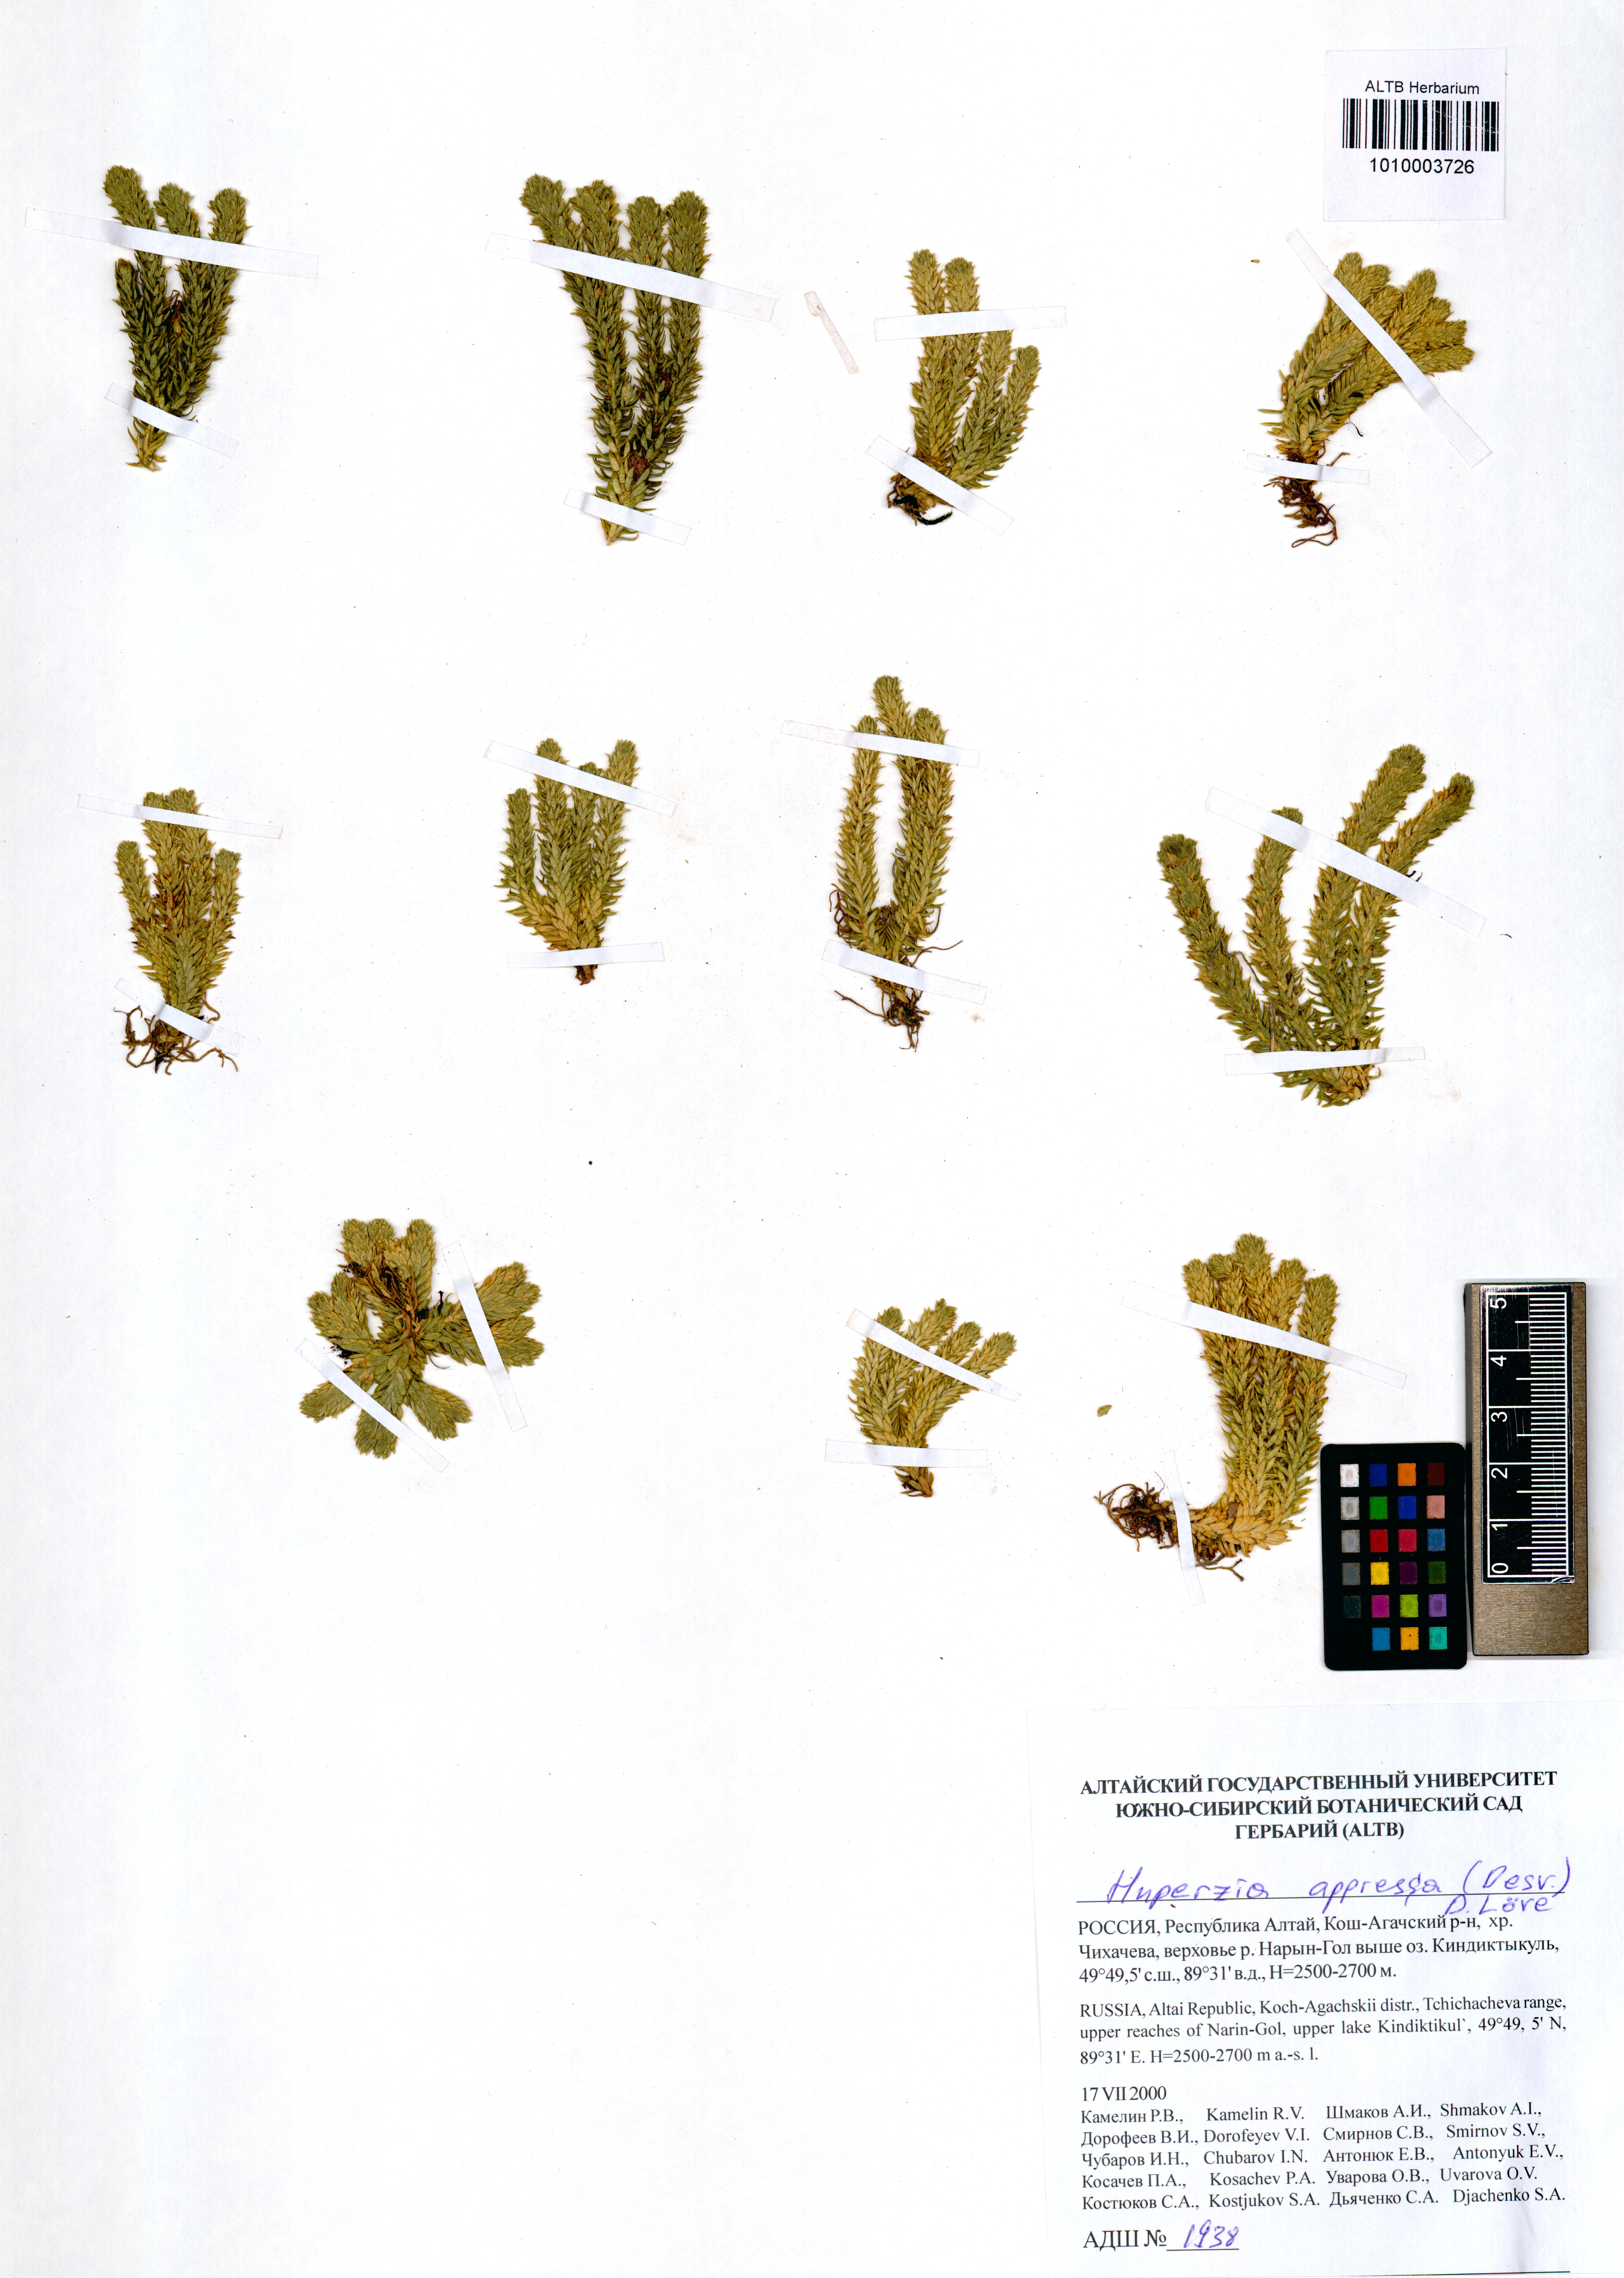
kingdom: Plantae
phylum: Tracheophyta
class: Lycopodiopsida
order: Lycopodiales
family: Lycopodiaceae
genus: Huperzia
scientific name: Huperzia selago
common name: Northern firmoss
